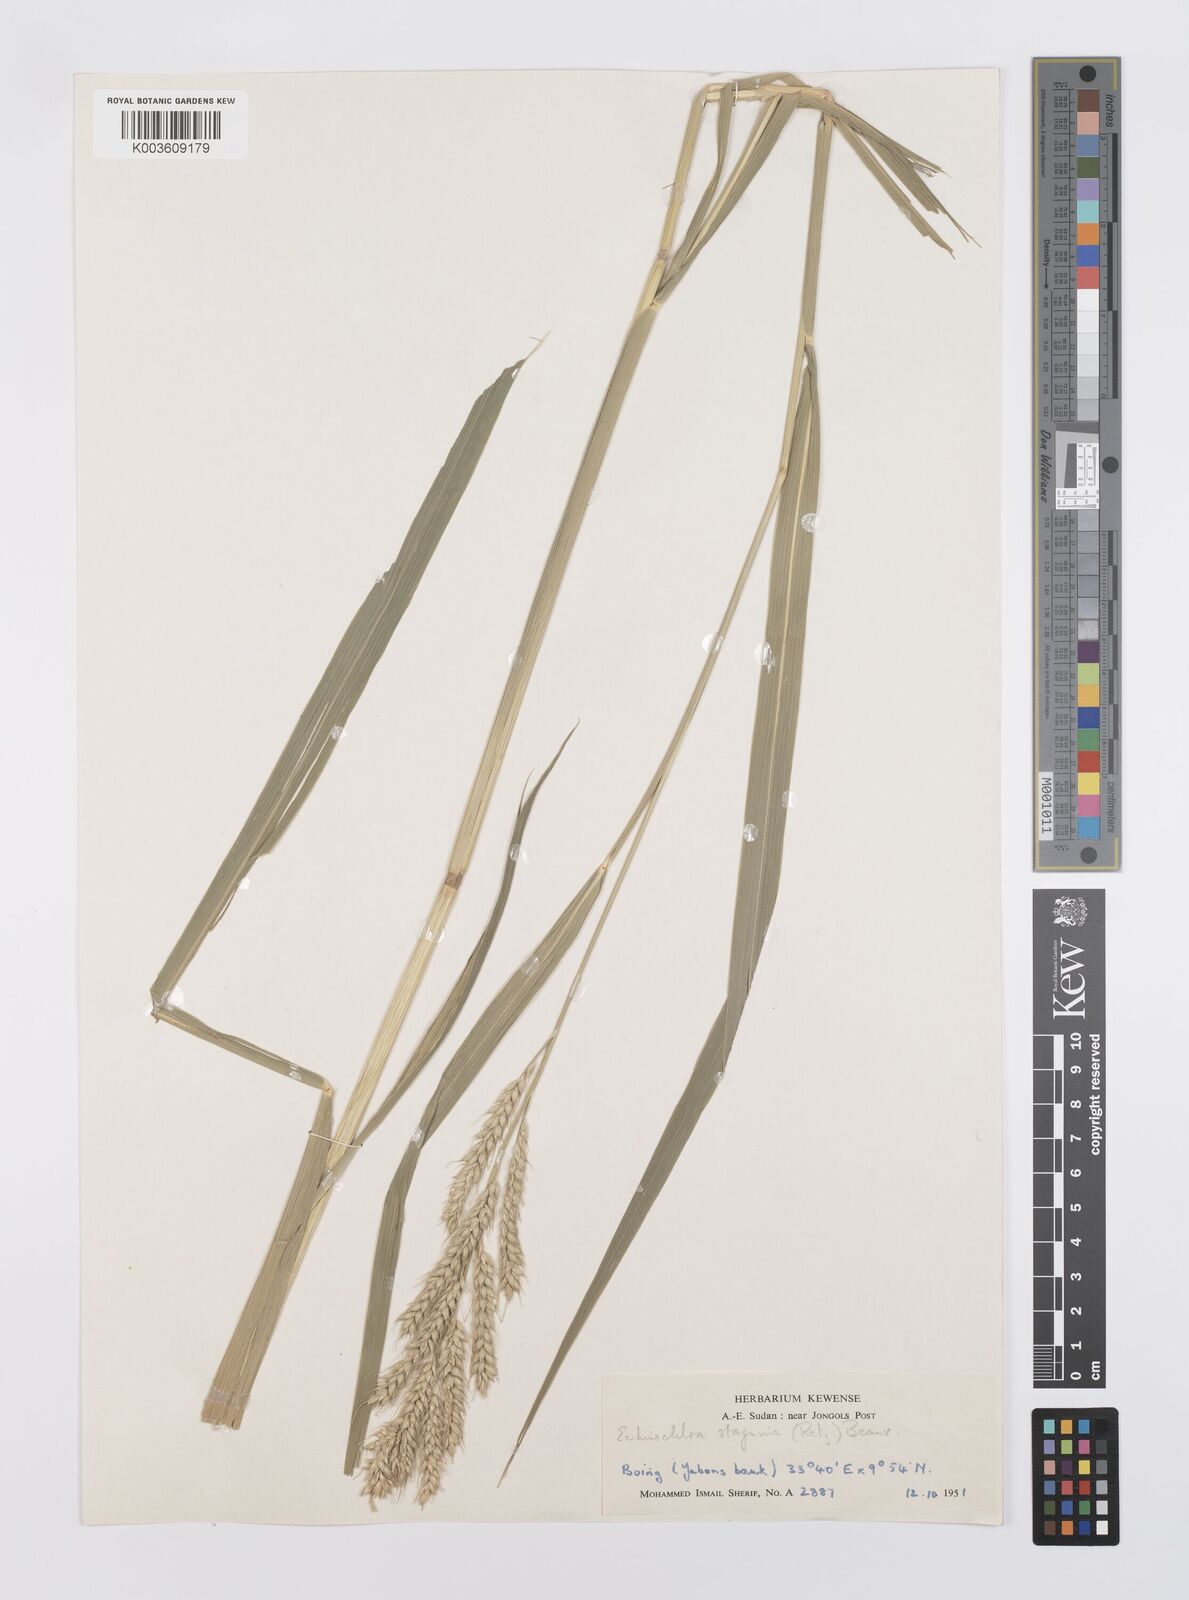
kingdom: Plantae
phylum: Tracheophyta
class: Liliopsida
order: Poales
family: Poaceae
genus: Echinochloa
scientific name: Echinochloa stagnina
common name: Burgu grass
